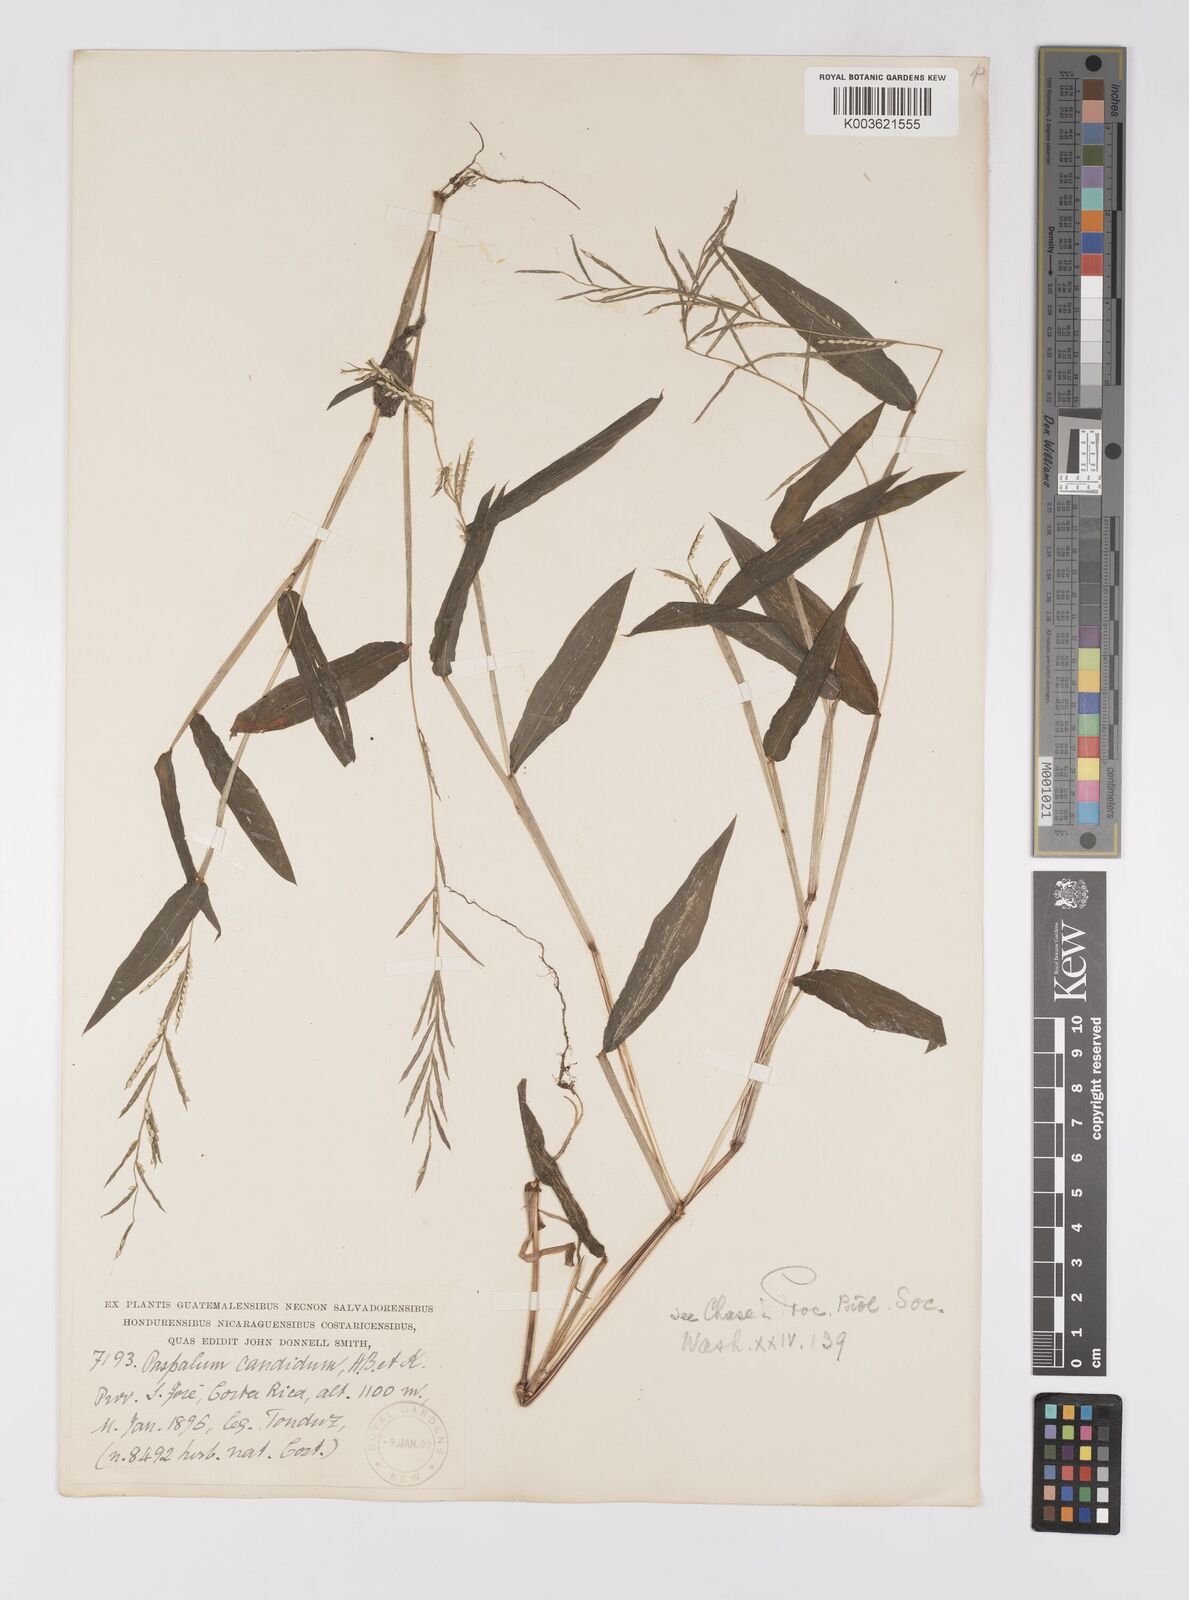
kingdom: Plantae
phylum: Tracheophyta
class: Liliopsida
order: Poales
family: Poaceae
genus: Paspalum
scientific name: Paspalum candidum
